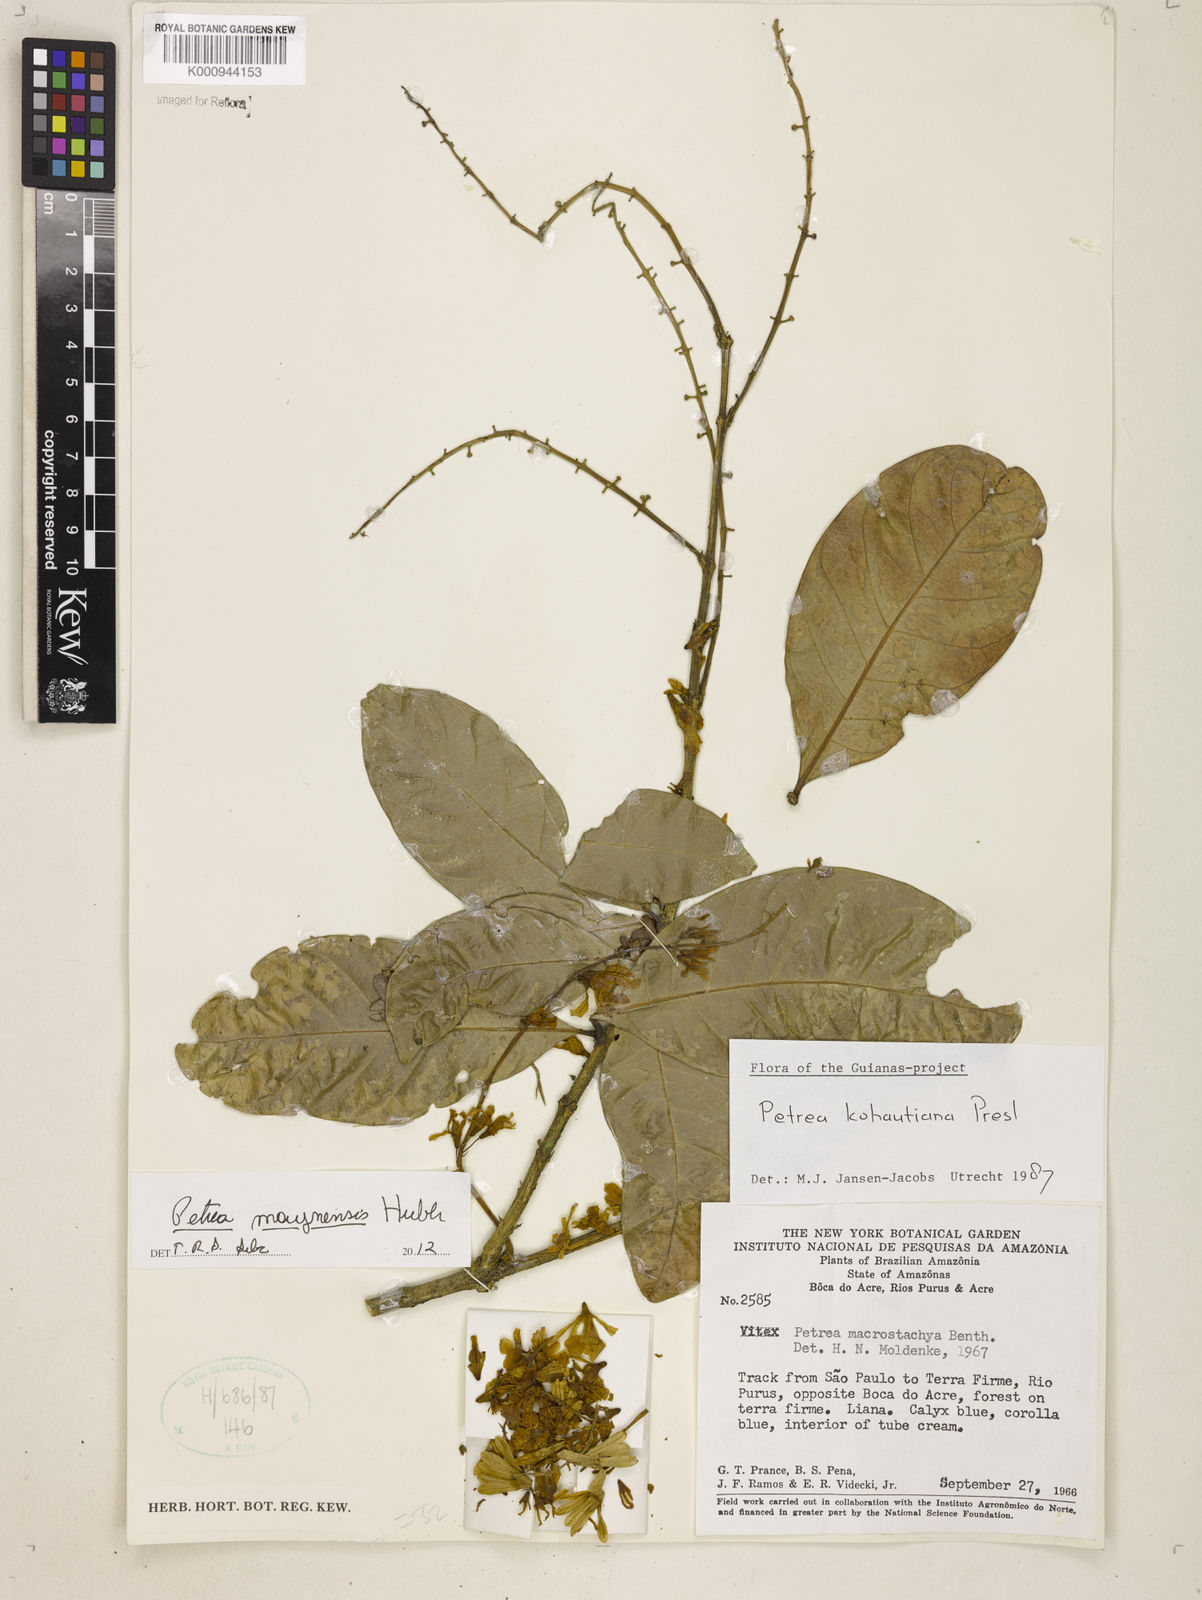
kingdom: Plantae
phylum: Tracheophyta
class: Magnoliopsida
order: Lamiales
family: Verbenaceae
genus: Petrea
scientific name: Petrea maynensis
